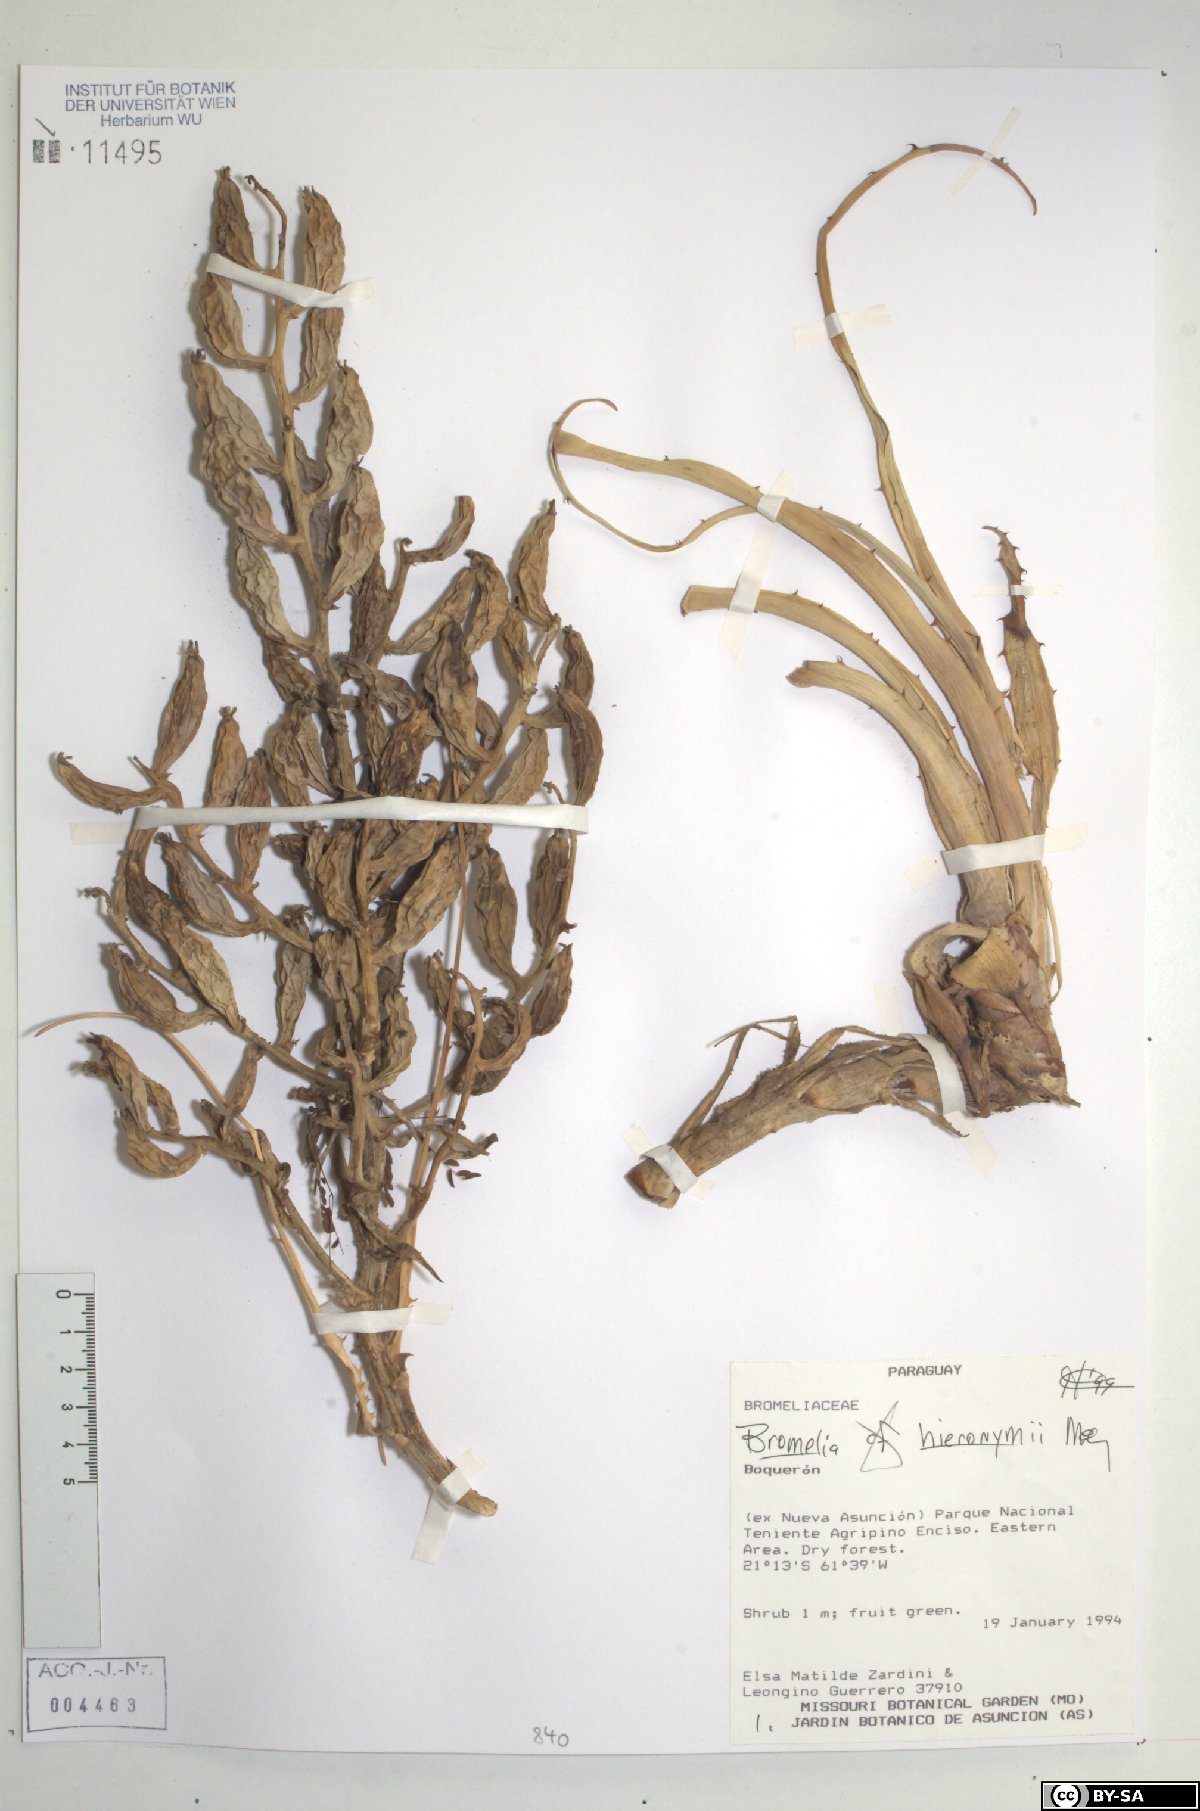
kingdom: Plantae
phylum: Tracheophyta
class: Liliopsida
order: Poales
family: Bromeliaceae
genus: Bromelia
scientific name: Bromelia hieronymi
